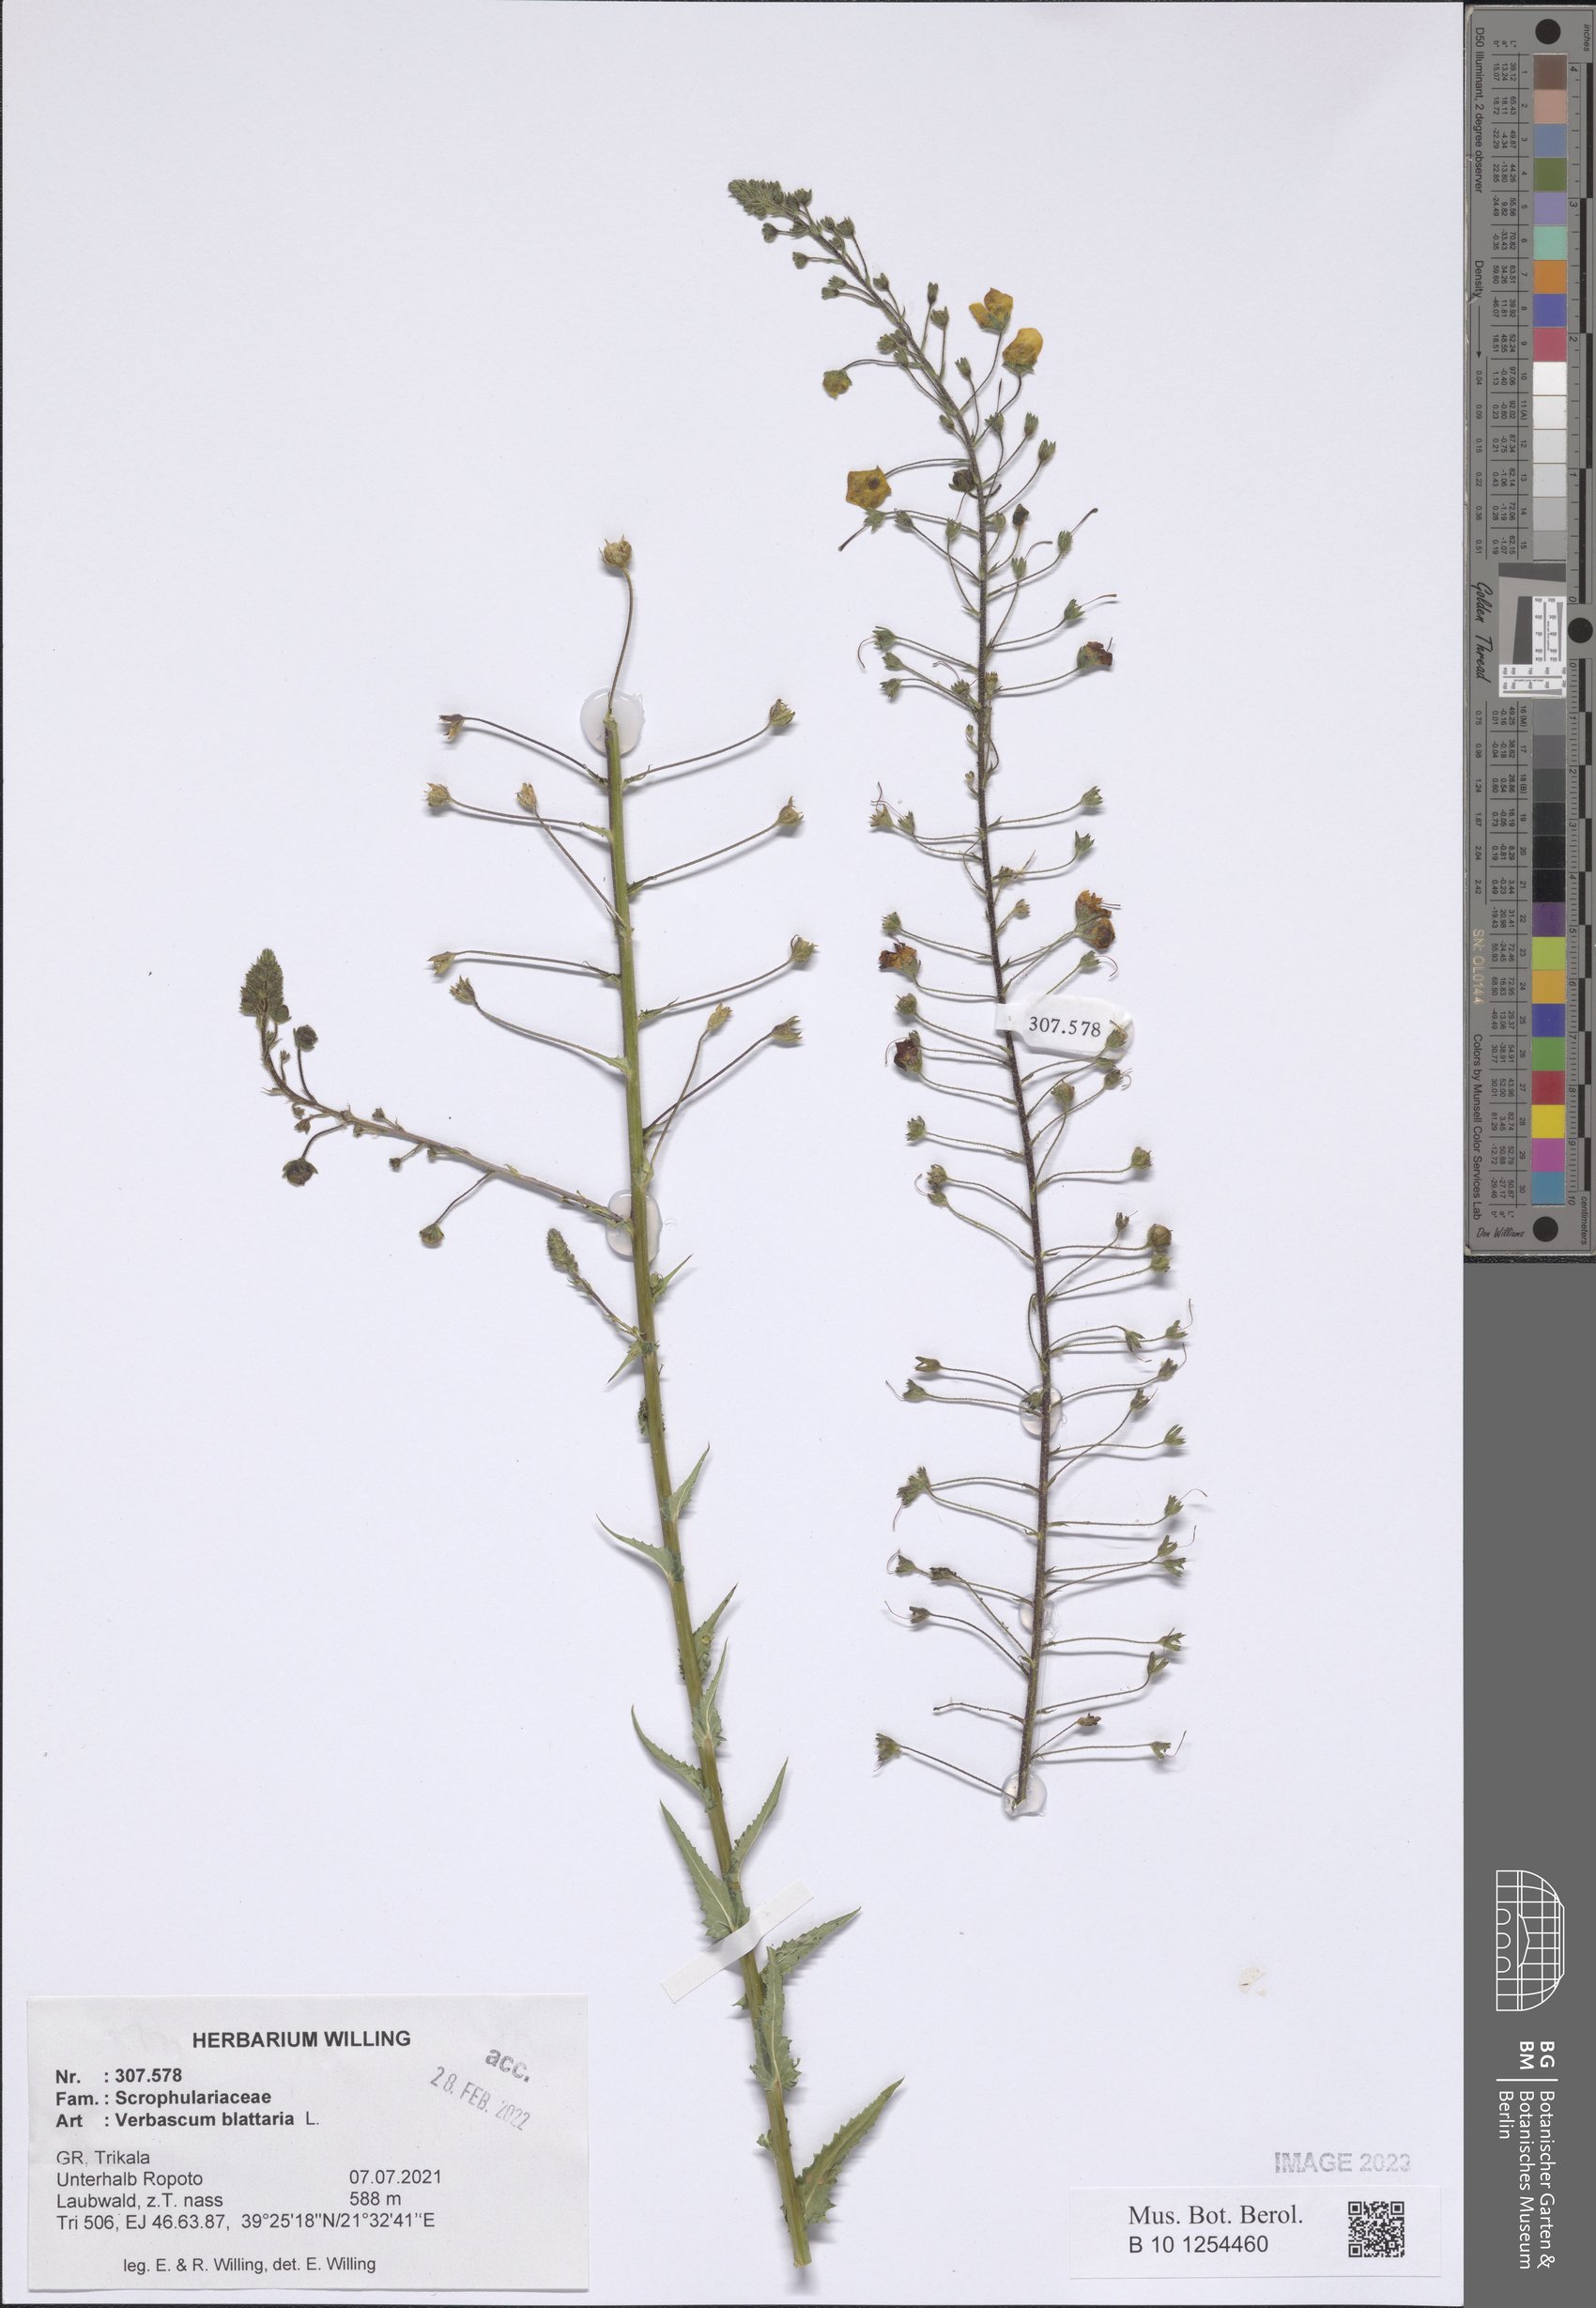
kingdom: Plantae
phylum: Tracheophyta
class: Magnoliopsida
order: Lamiales
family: Scrophulariaceae
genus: Verbascum
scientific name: Verbascum blattaria
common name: Moth mullein
